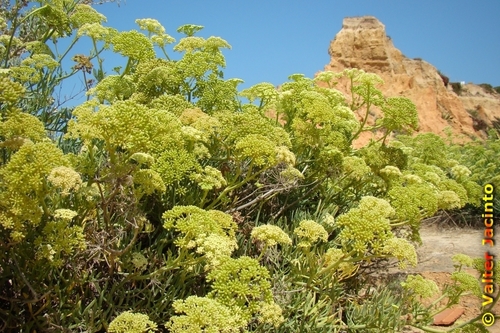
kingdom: Plantae
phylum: Tracheophyta
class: Magnoliopsida
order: Apiales
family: Apiaceae
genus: Crithmum
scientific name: Crithmum maritimum
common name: Rock samphire
